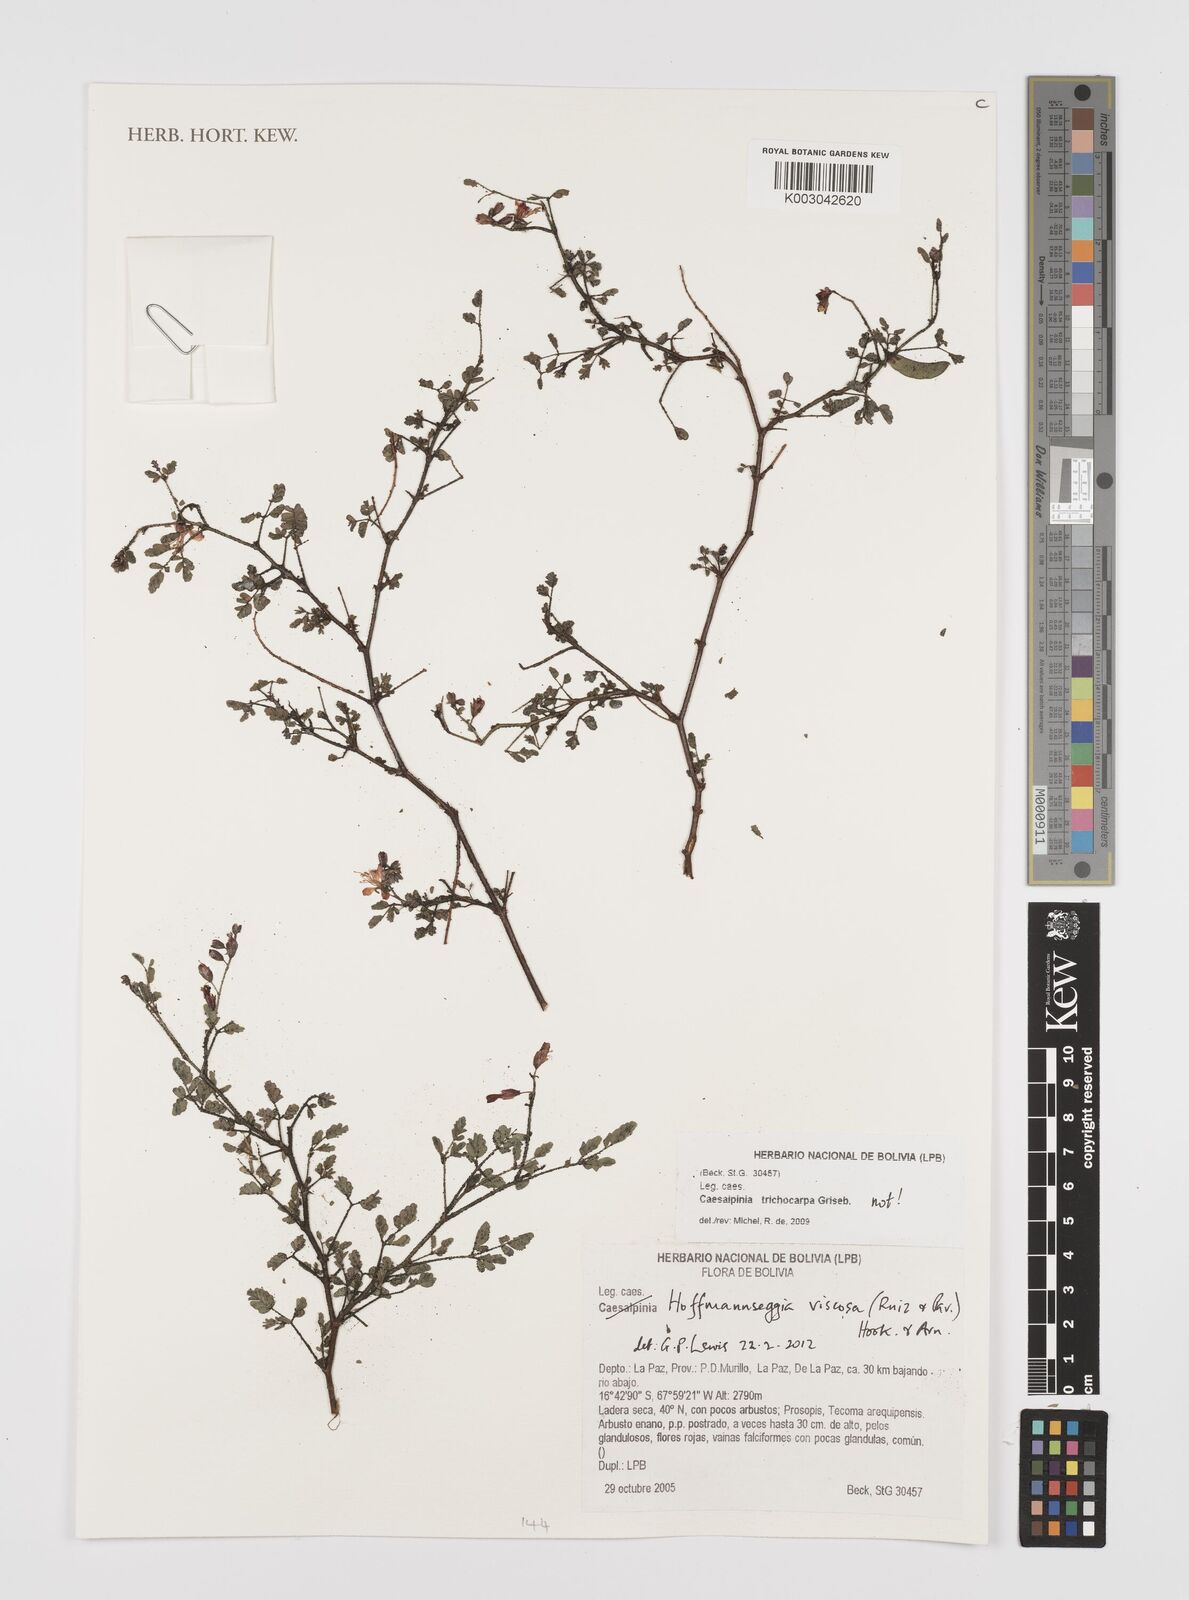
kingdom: Plantae
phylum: Tracheophyta
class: Magnoliopsida
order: Fabales
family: Fabaceae
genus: Hoffmannseggia
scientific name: Hoffmannseggia viscosa
